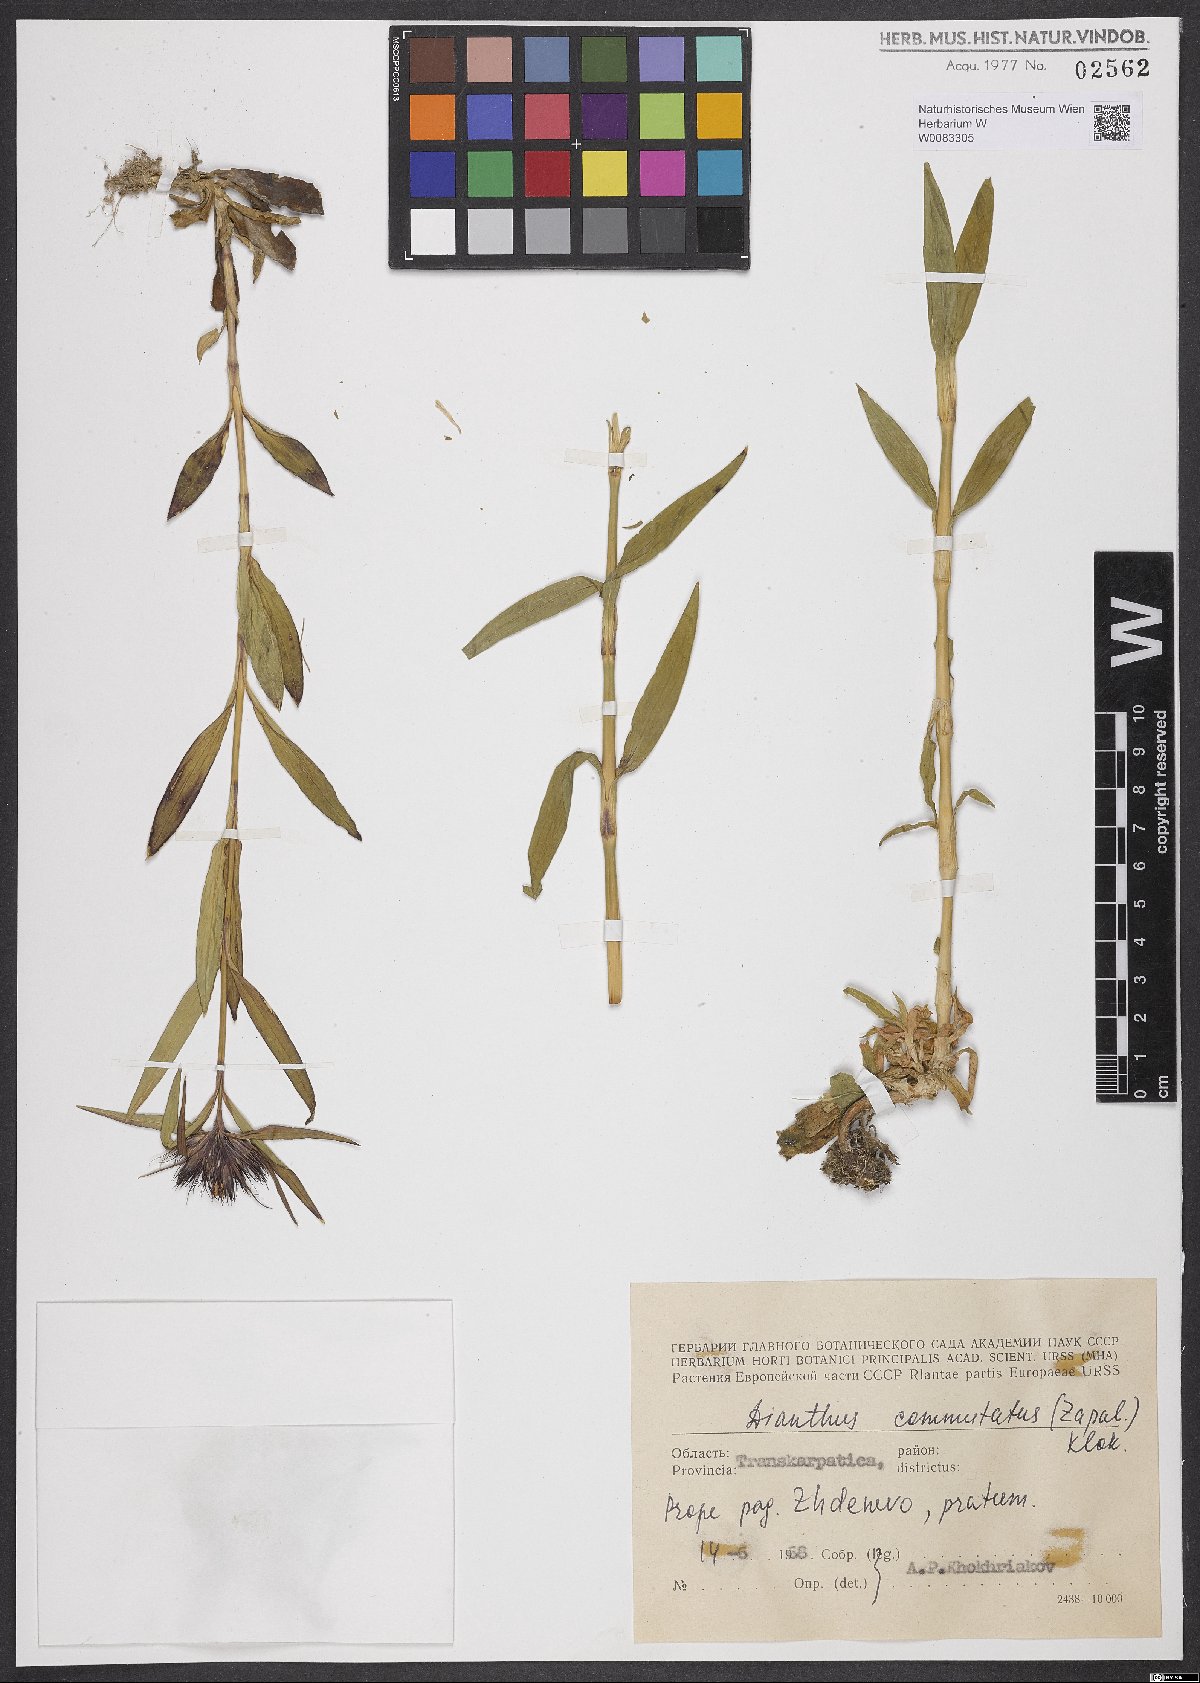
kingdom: Plantae
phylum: Tracheophyta
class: Magnoliopsida
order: Caryophyllales
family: Caryophyllaceae
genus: Dianthus
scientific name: Dianthus carthusianorum
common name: Carthusian pink
